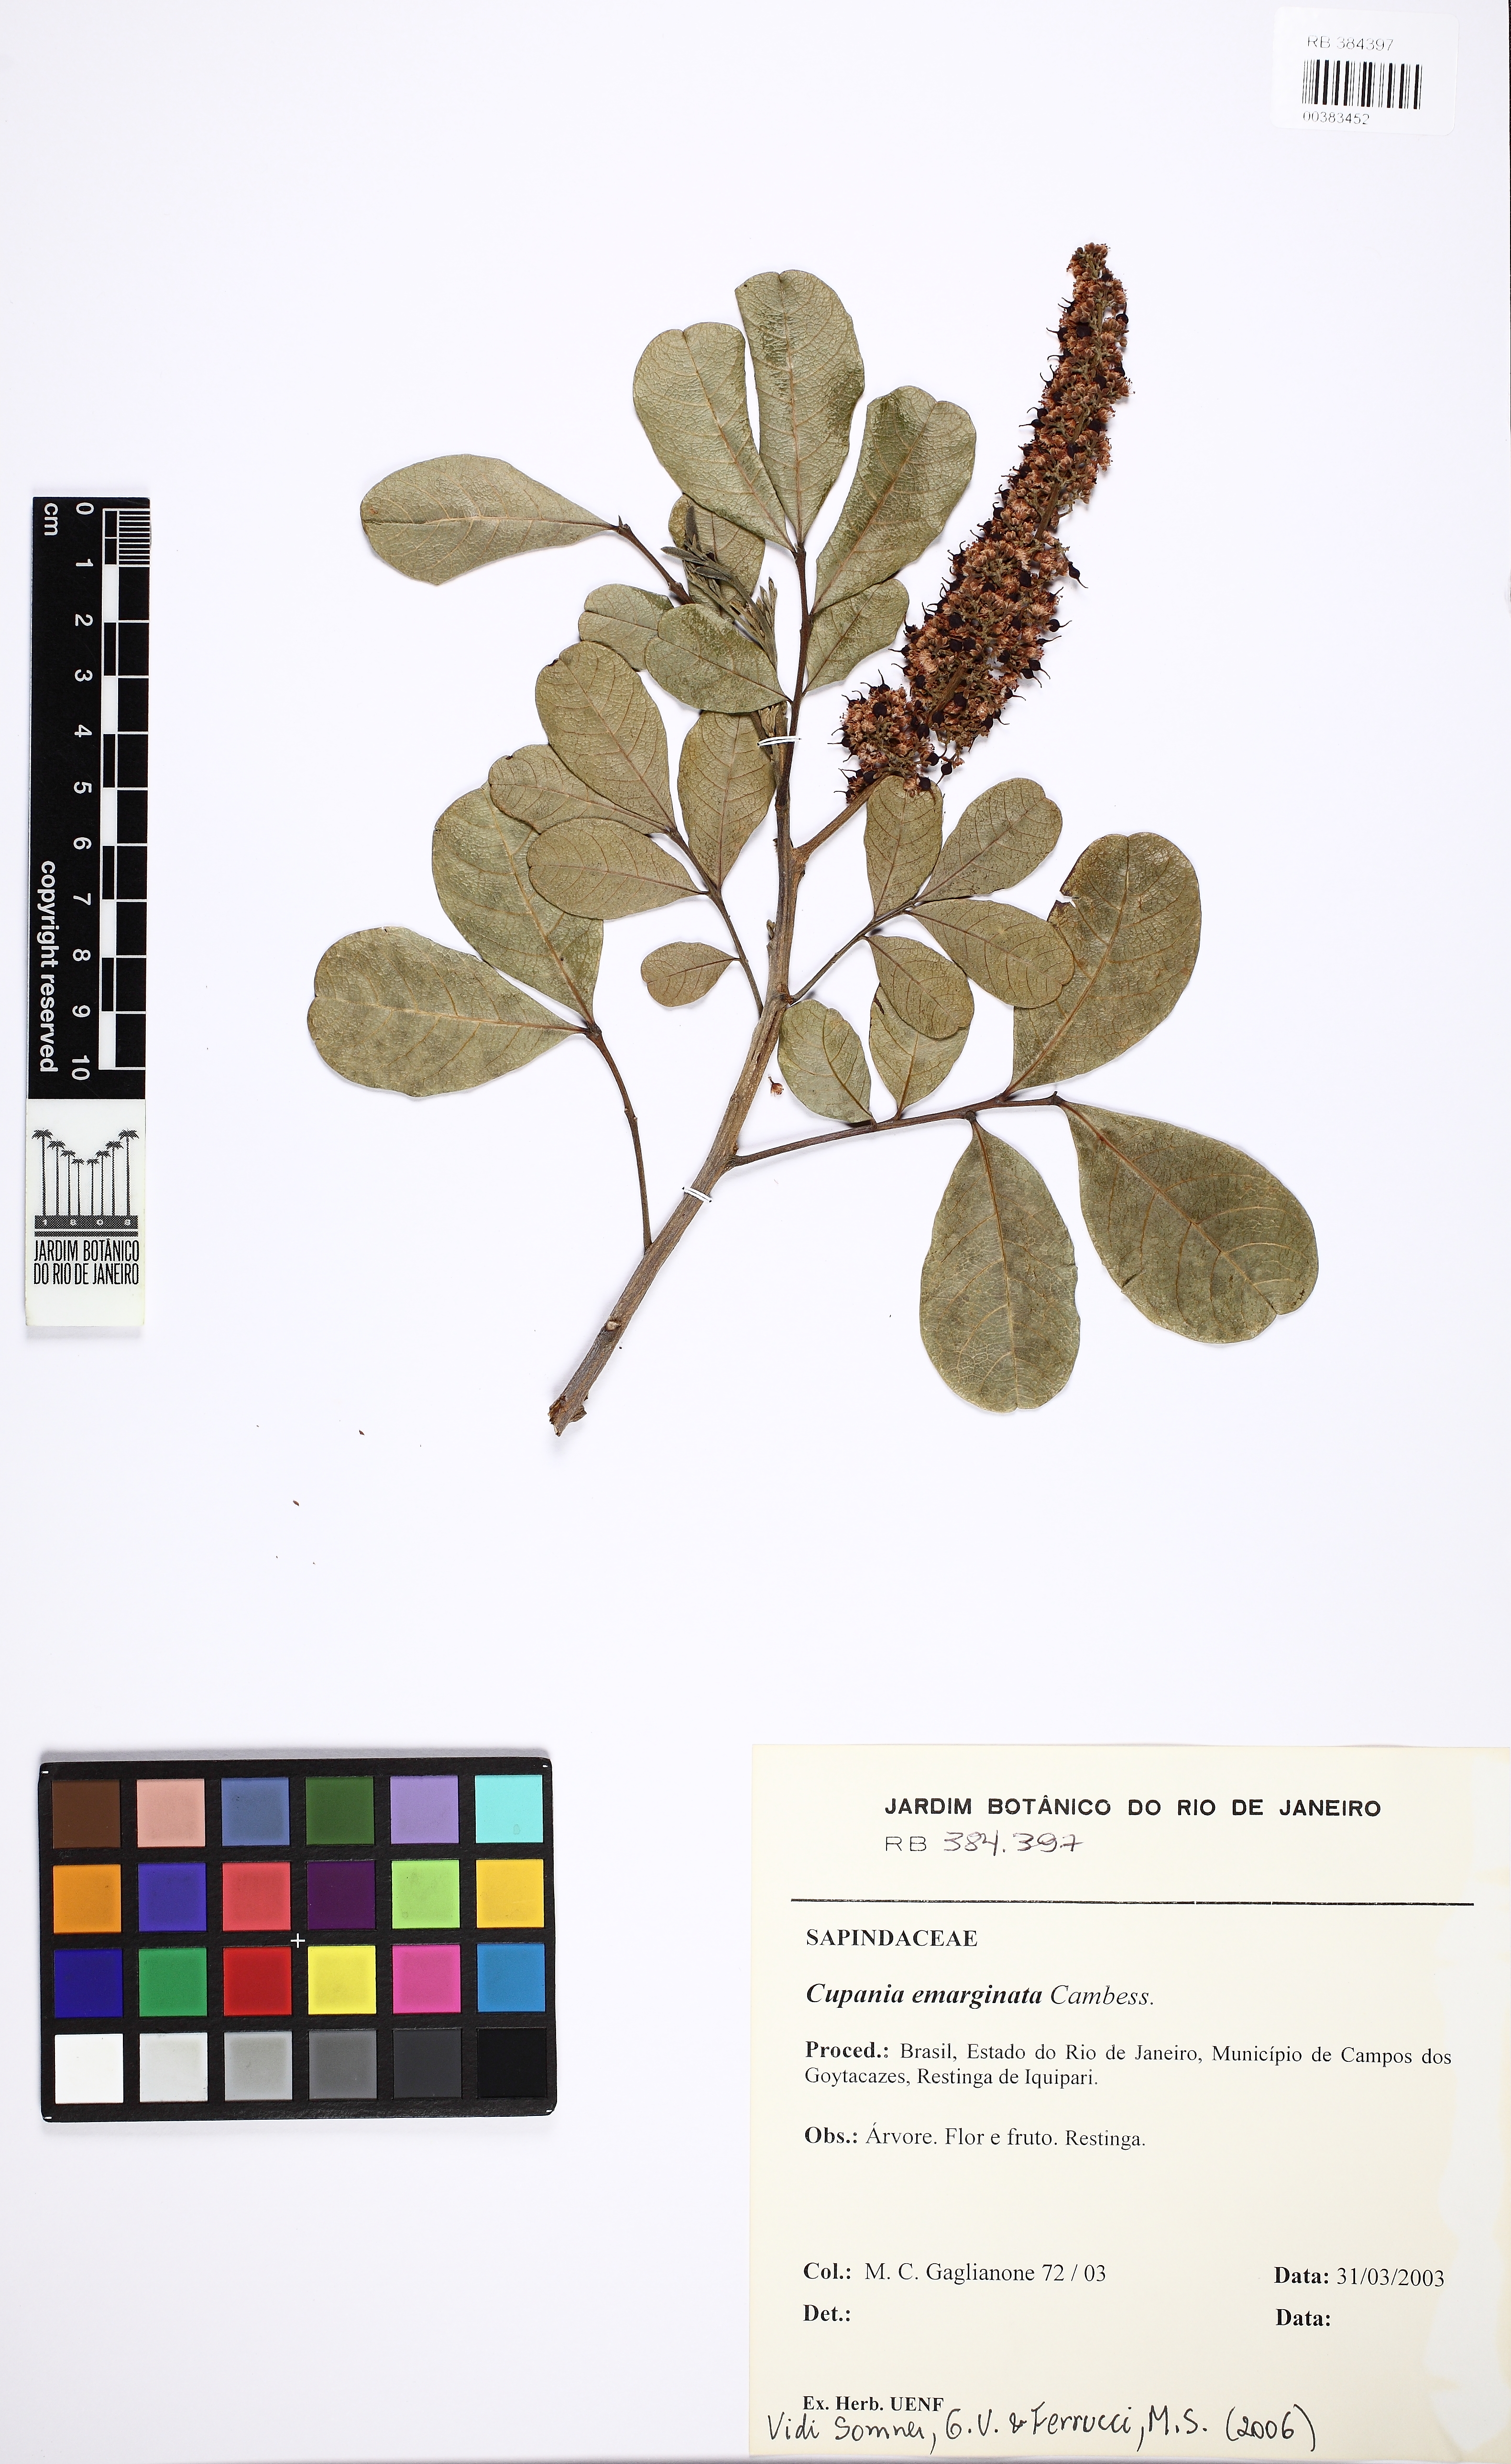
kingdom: Plantae
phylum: Tracheophyta
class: Magnoliopsida
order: Sapindales
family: Sapindaceae
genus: Cupania
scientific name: Cupania emarginata
